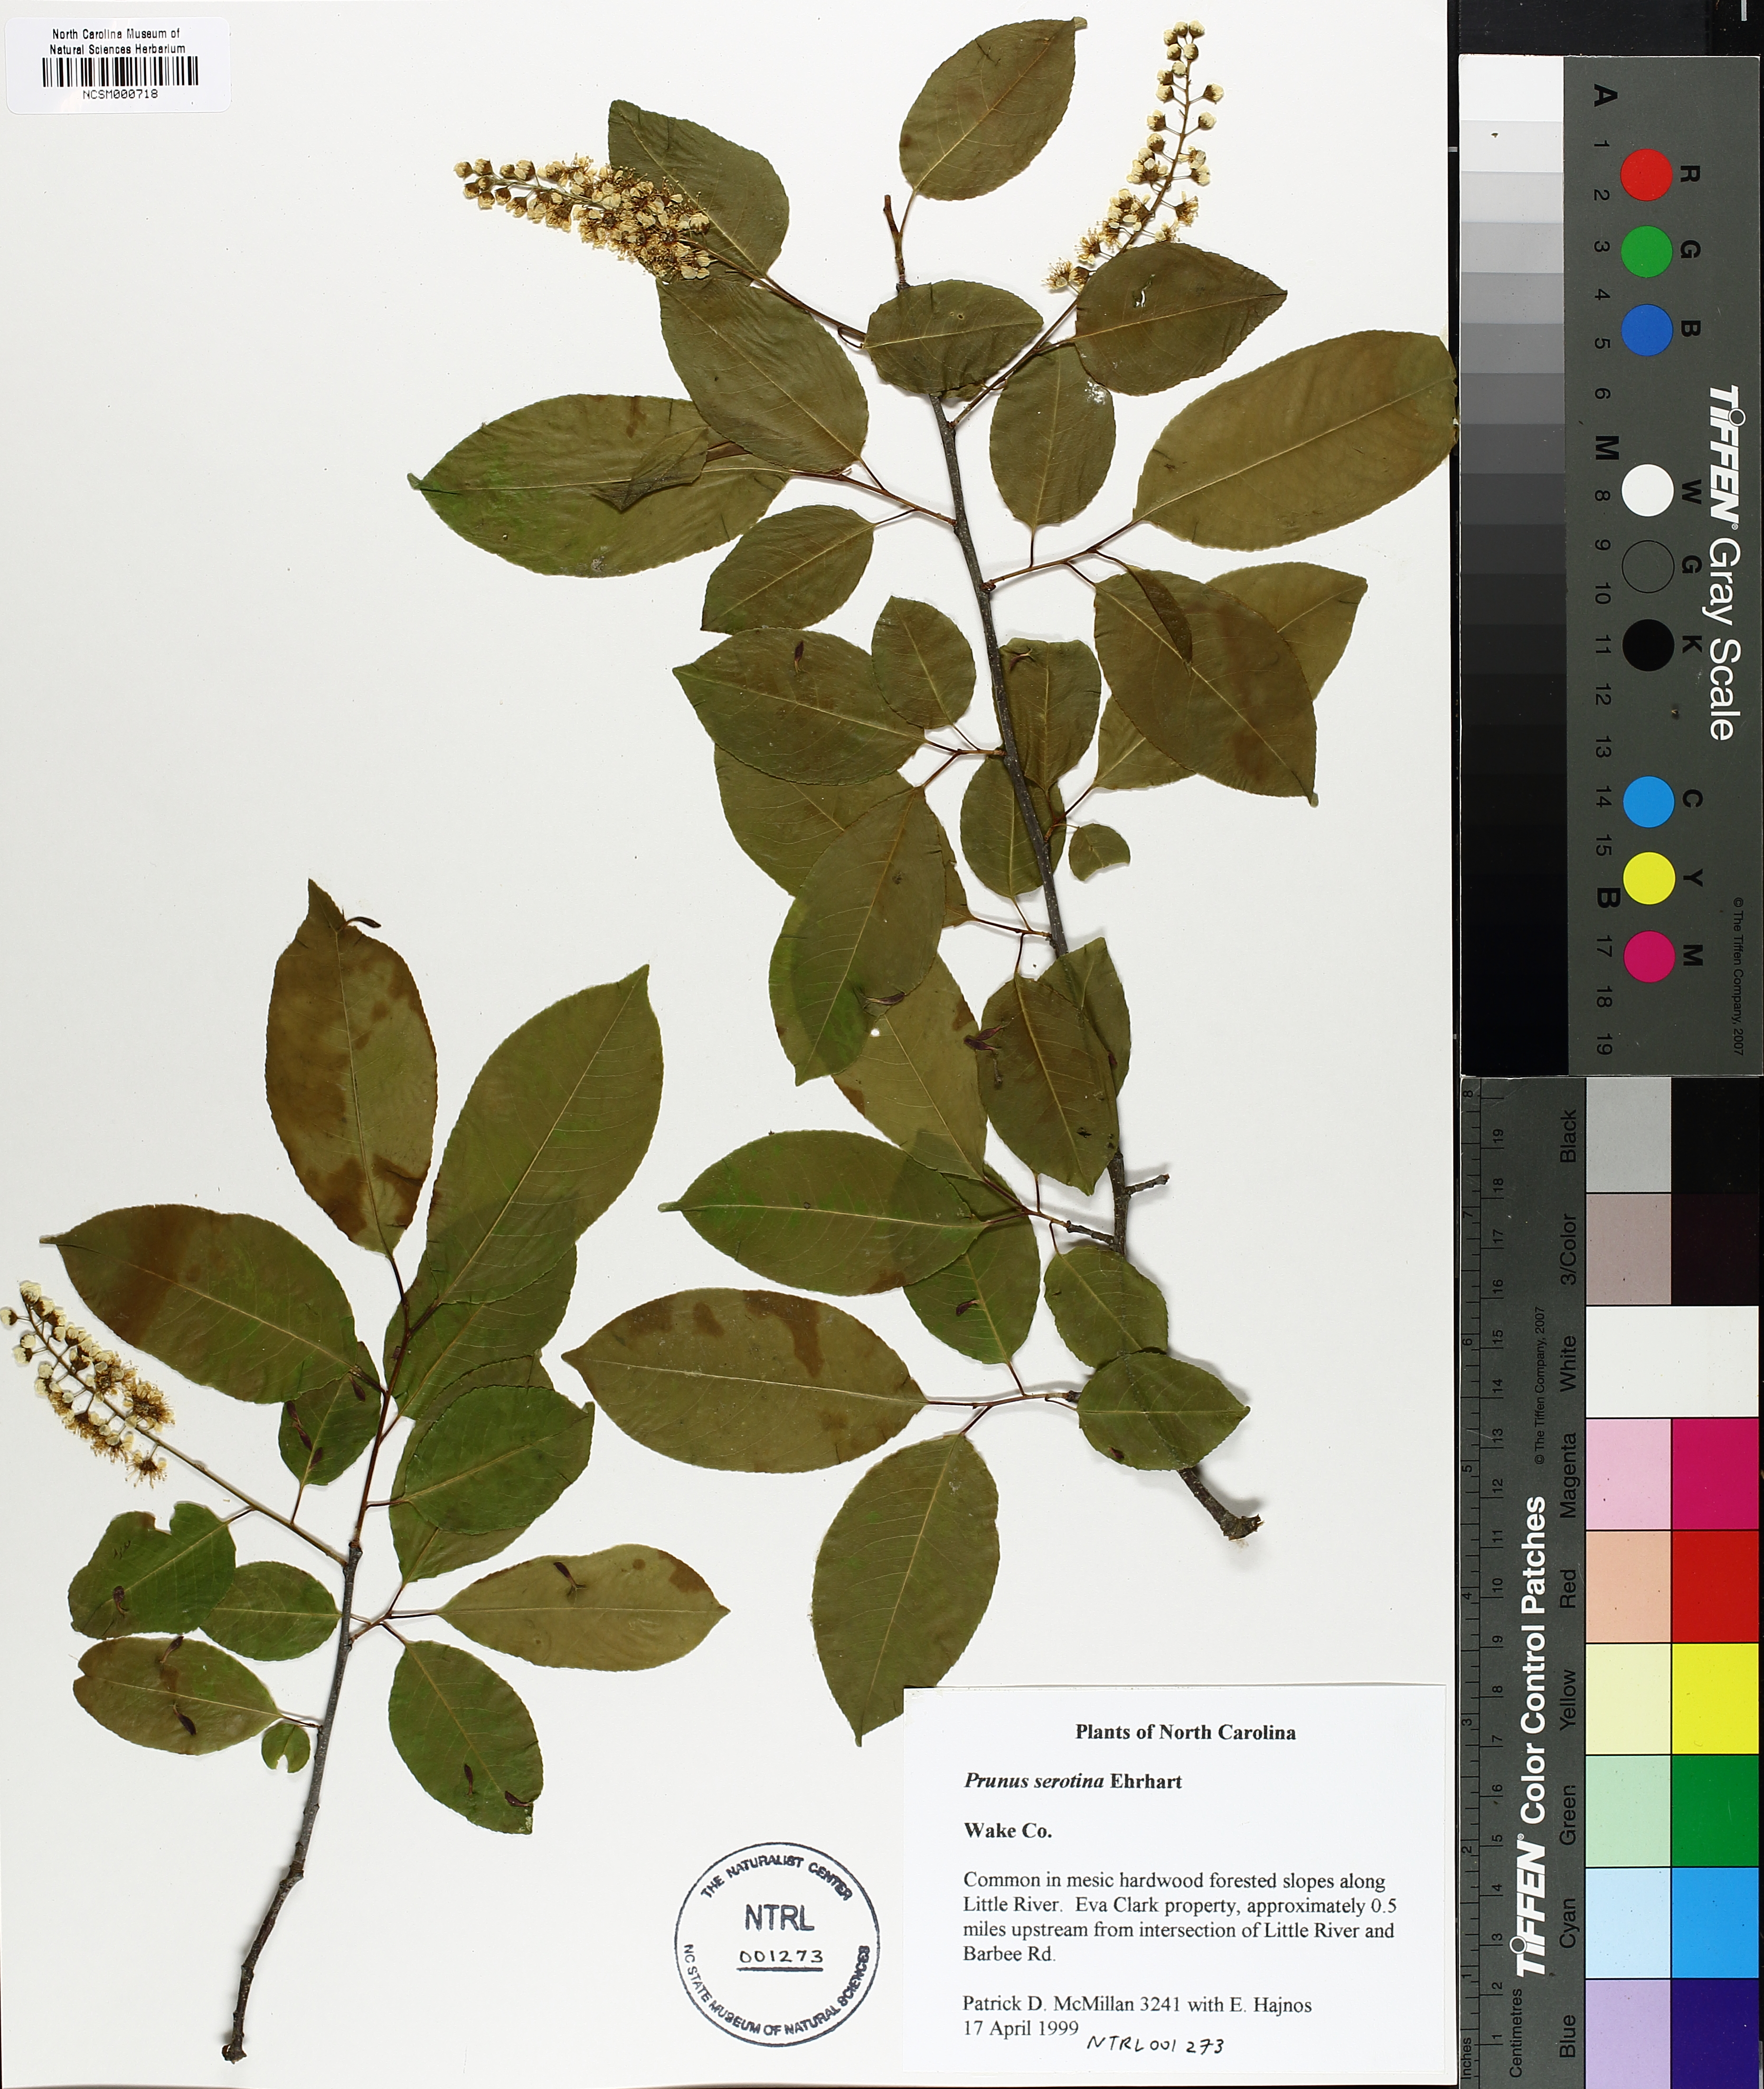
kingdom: Plantae
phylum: Tracheophyta
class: Magnoliopsida
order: Rosales
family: Rosaceae
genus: Prunus
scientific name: Prunus serotina
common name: Black cherry
